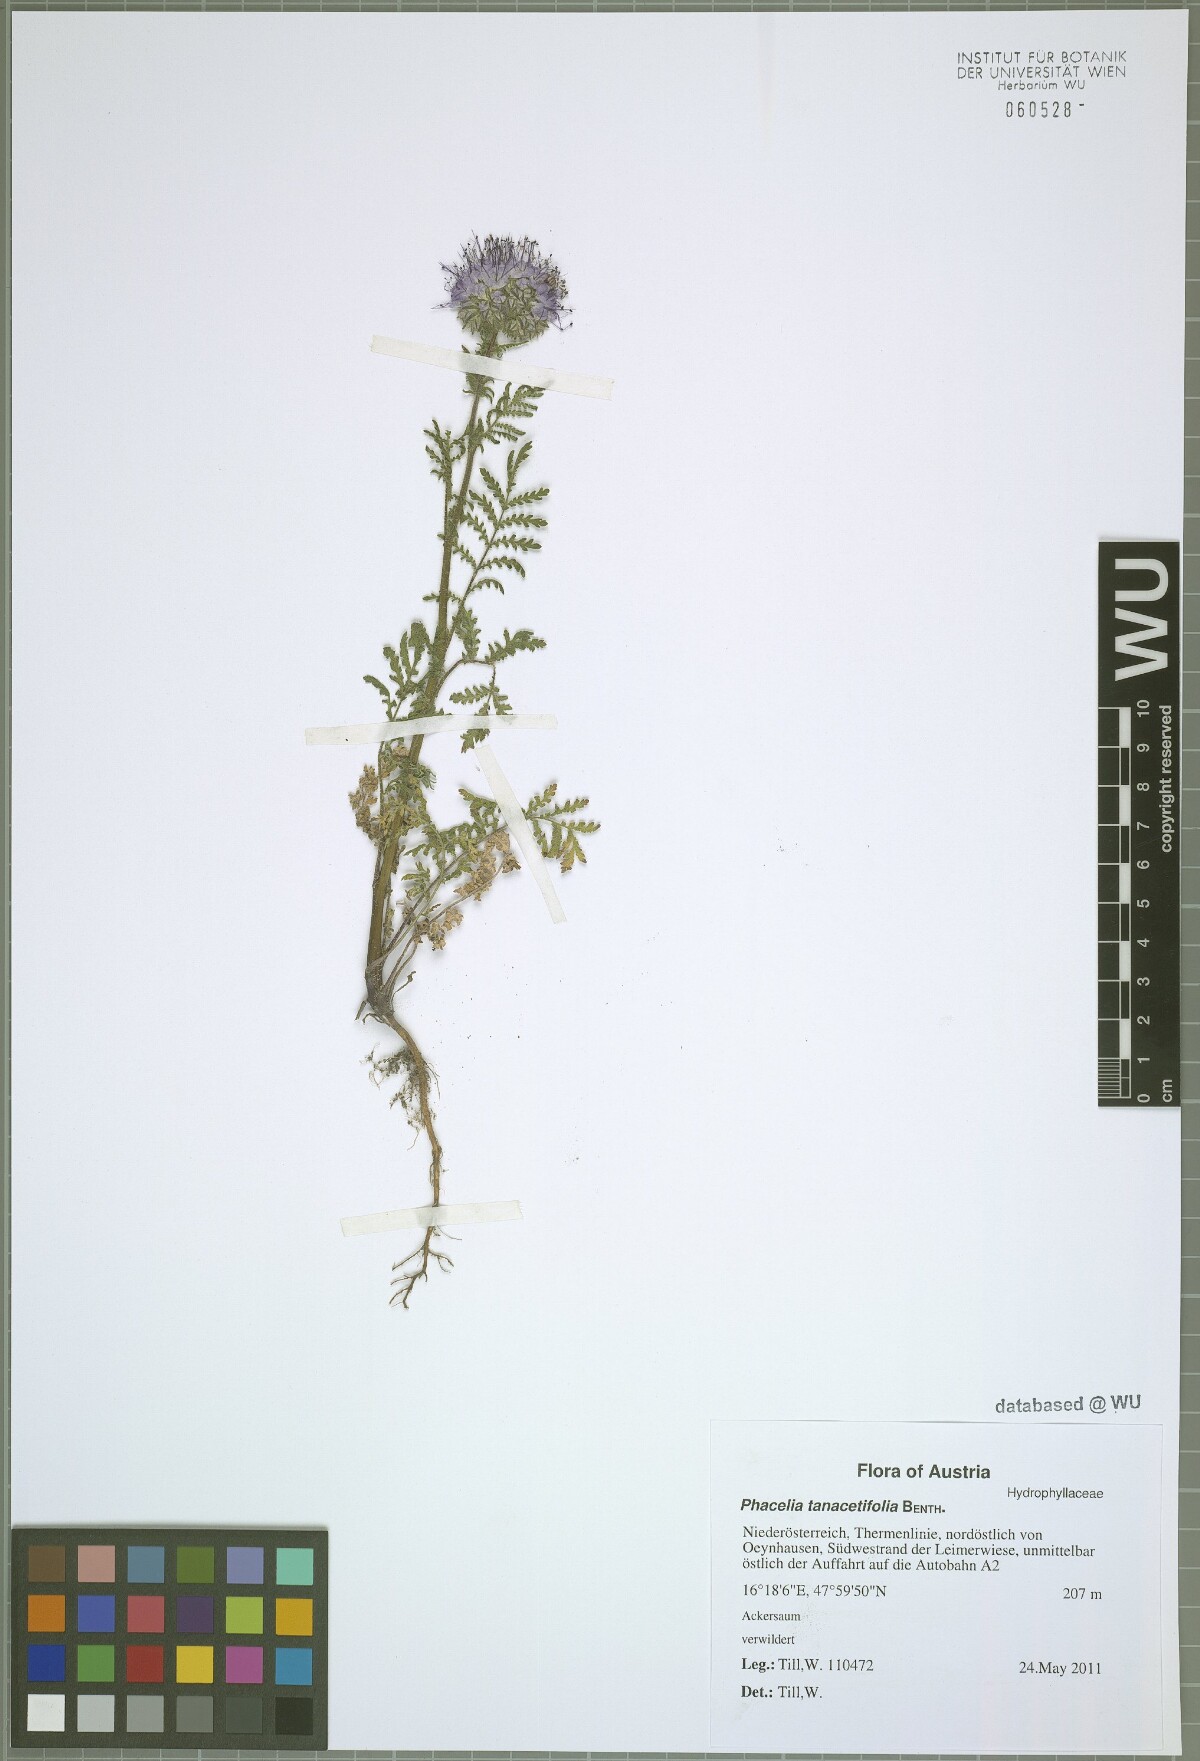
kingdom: Plantae
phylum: Tracheophyta
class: Magnoliopsida
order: Boraginales
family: Hydrophyllaceae
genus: Phacelia
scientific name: Phacelia tanacetifolia
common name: Phacelia
